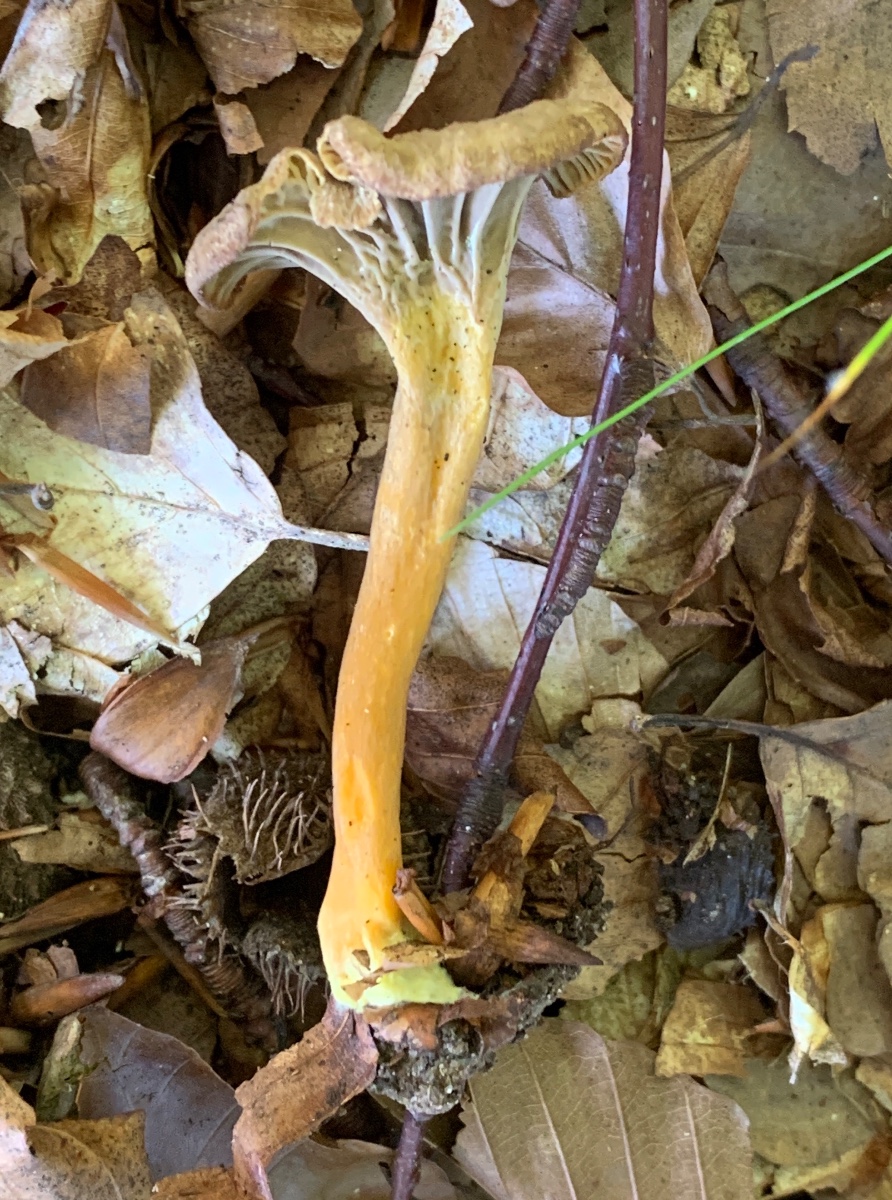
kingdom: Fungi
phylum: Basidiomycota
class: Agaricomycetes
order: Cantharellales
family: Hydnaceae
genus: Craterellus
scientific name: Craterellus tubaeformis
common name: tragt-kantarel
